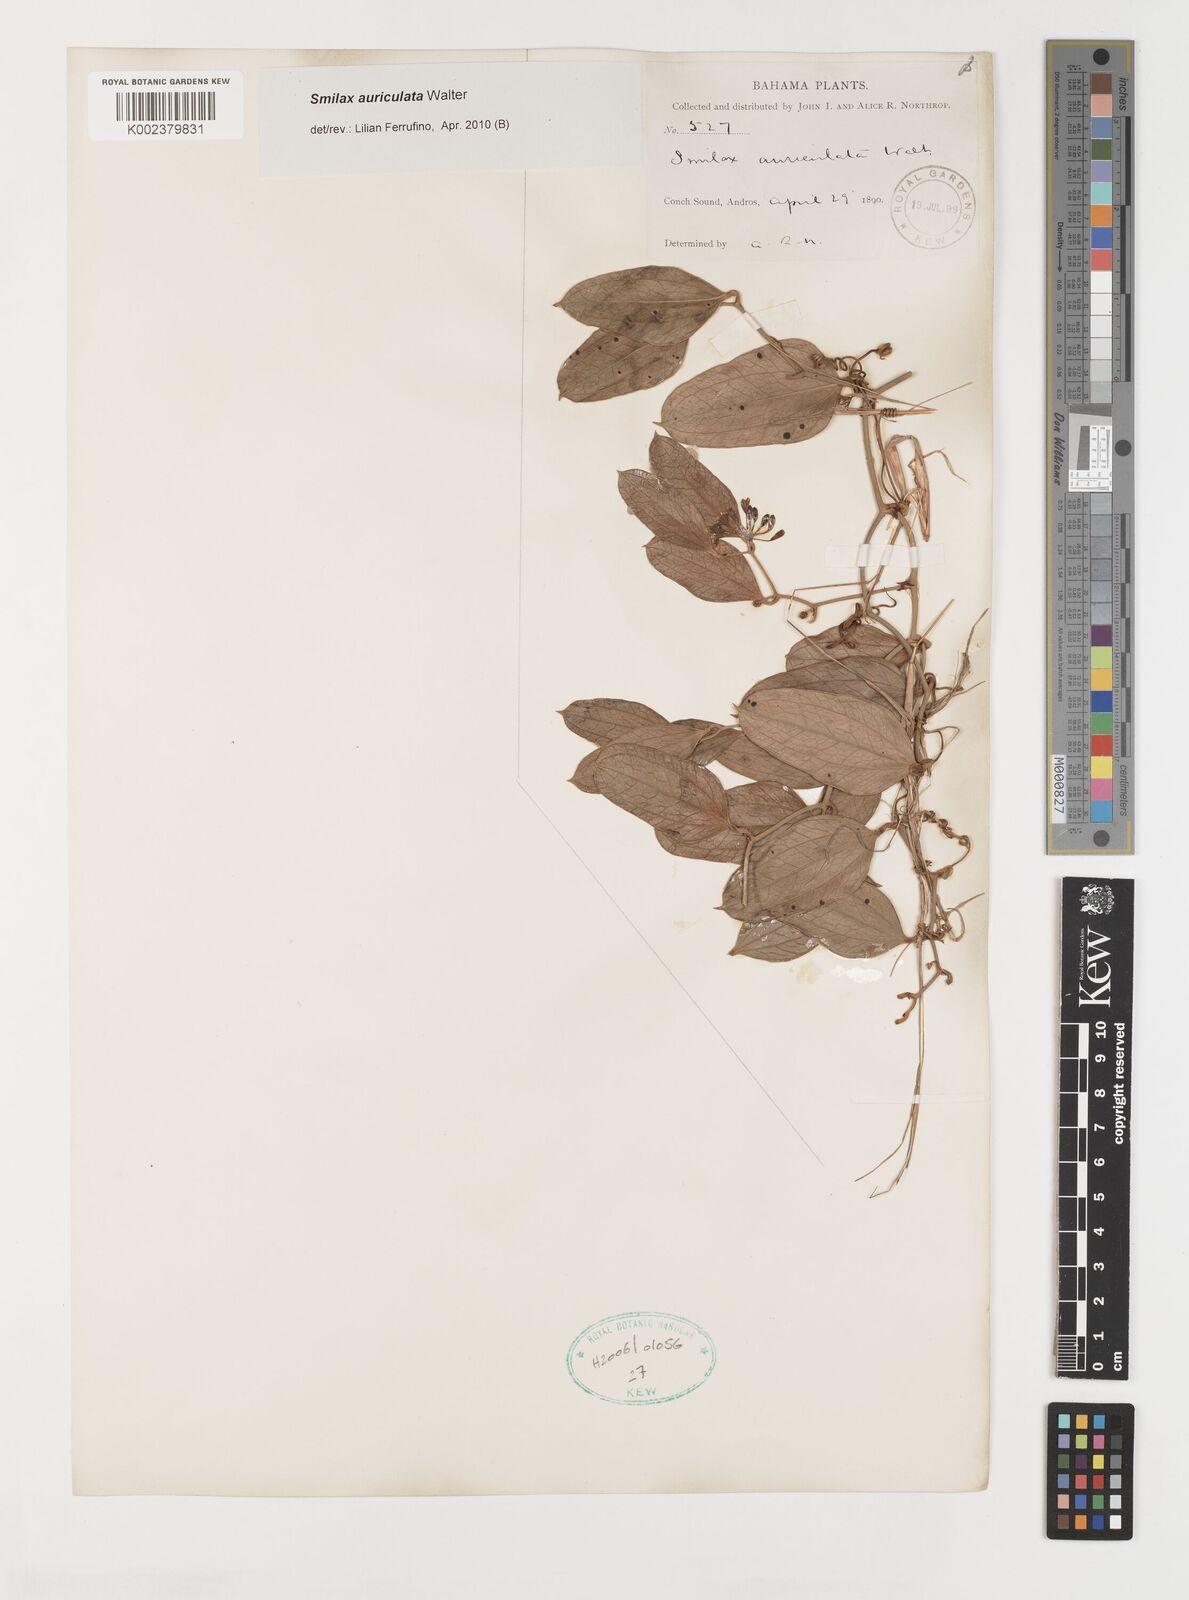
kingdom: Plantae
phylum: Tracheophyta
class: Liliopsida
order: Liliales
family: Smilacaceae
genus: Smilax
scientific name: Smilax auriculata
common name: Wild bamboo
